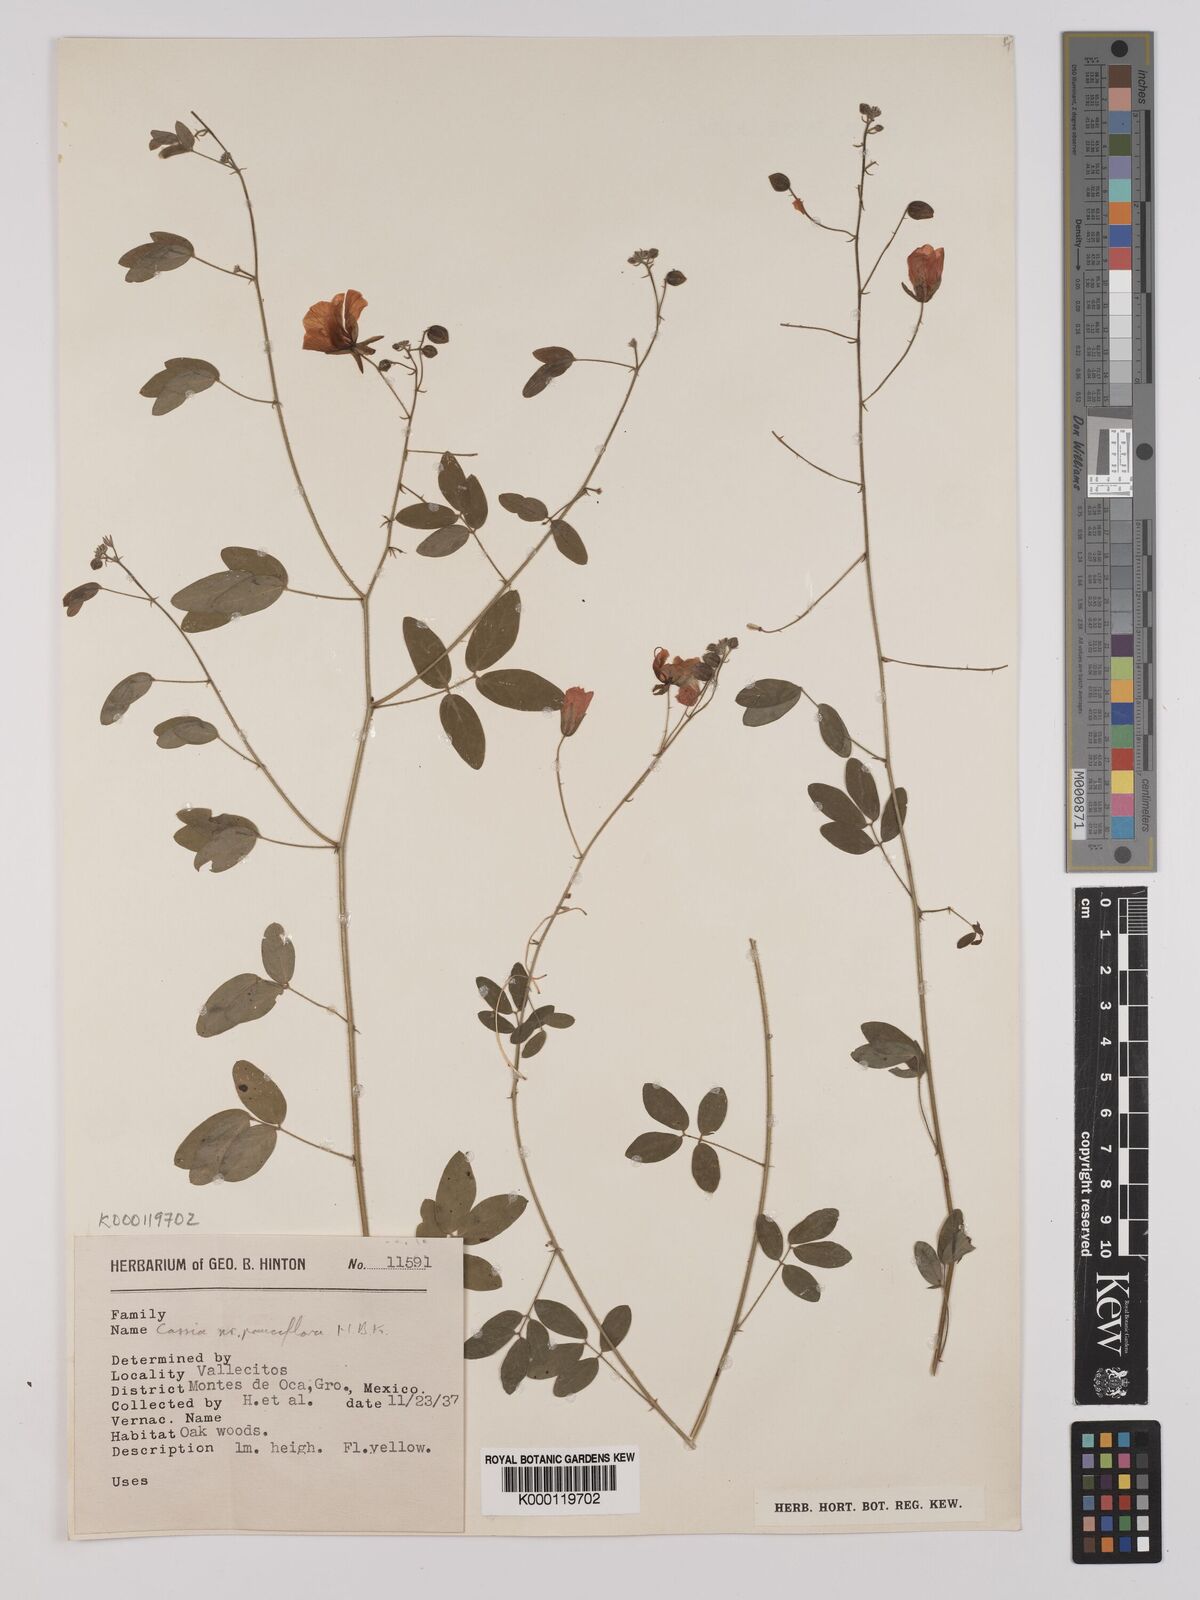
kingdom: Plantae
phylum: Tracheophyta
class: Magnoliopsida
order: Fabales
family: Fabaceae
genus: Chamaecrista
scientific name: Chamaecrista hispidula
